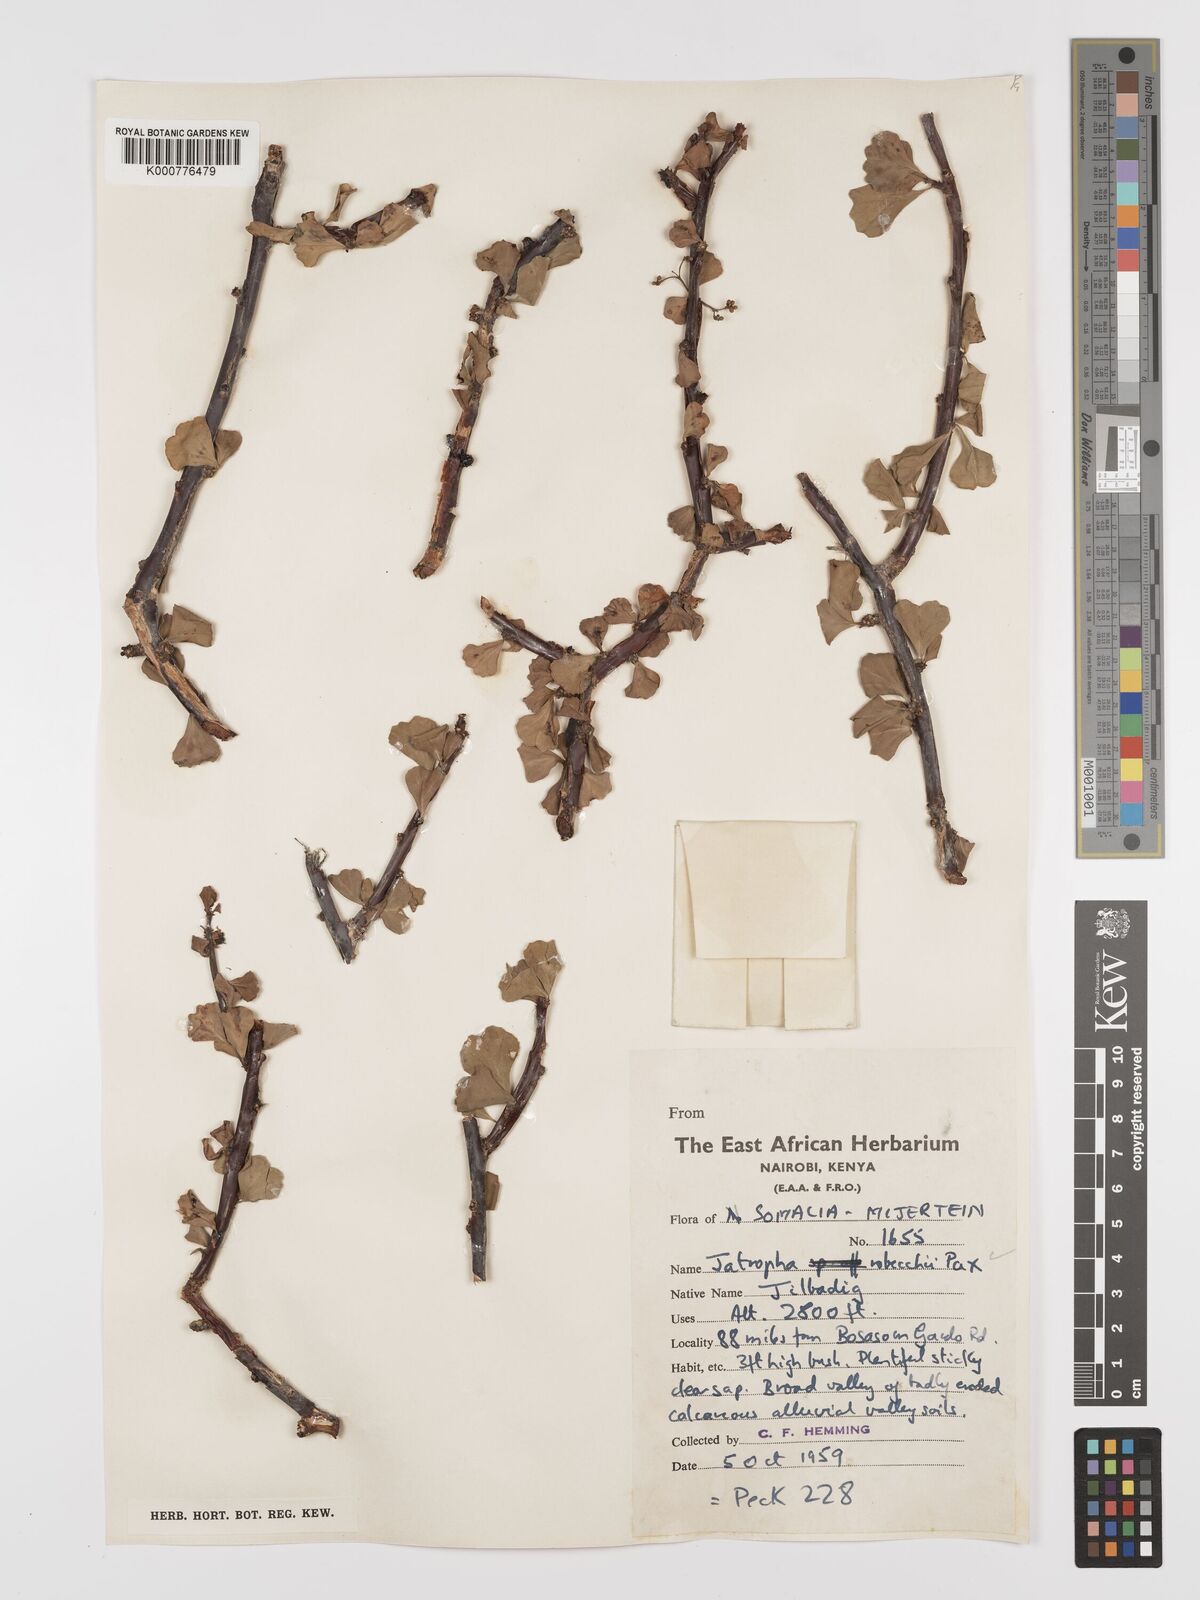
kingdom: Plantae
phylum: Tracheophyta
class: Magnoliopsida
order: Malpighiales
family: Euphorbiaceae
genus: Jatropha
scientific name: Jatropha robecchii
